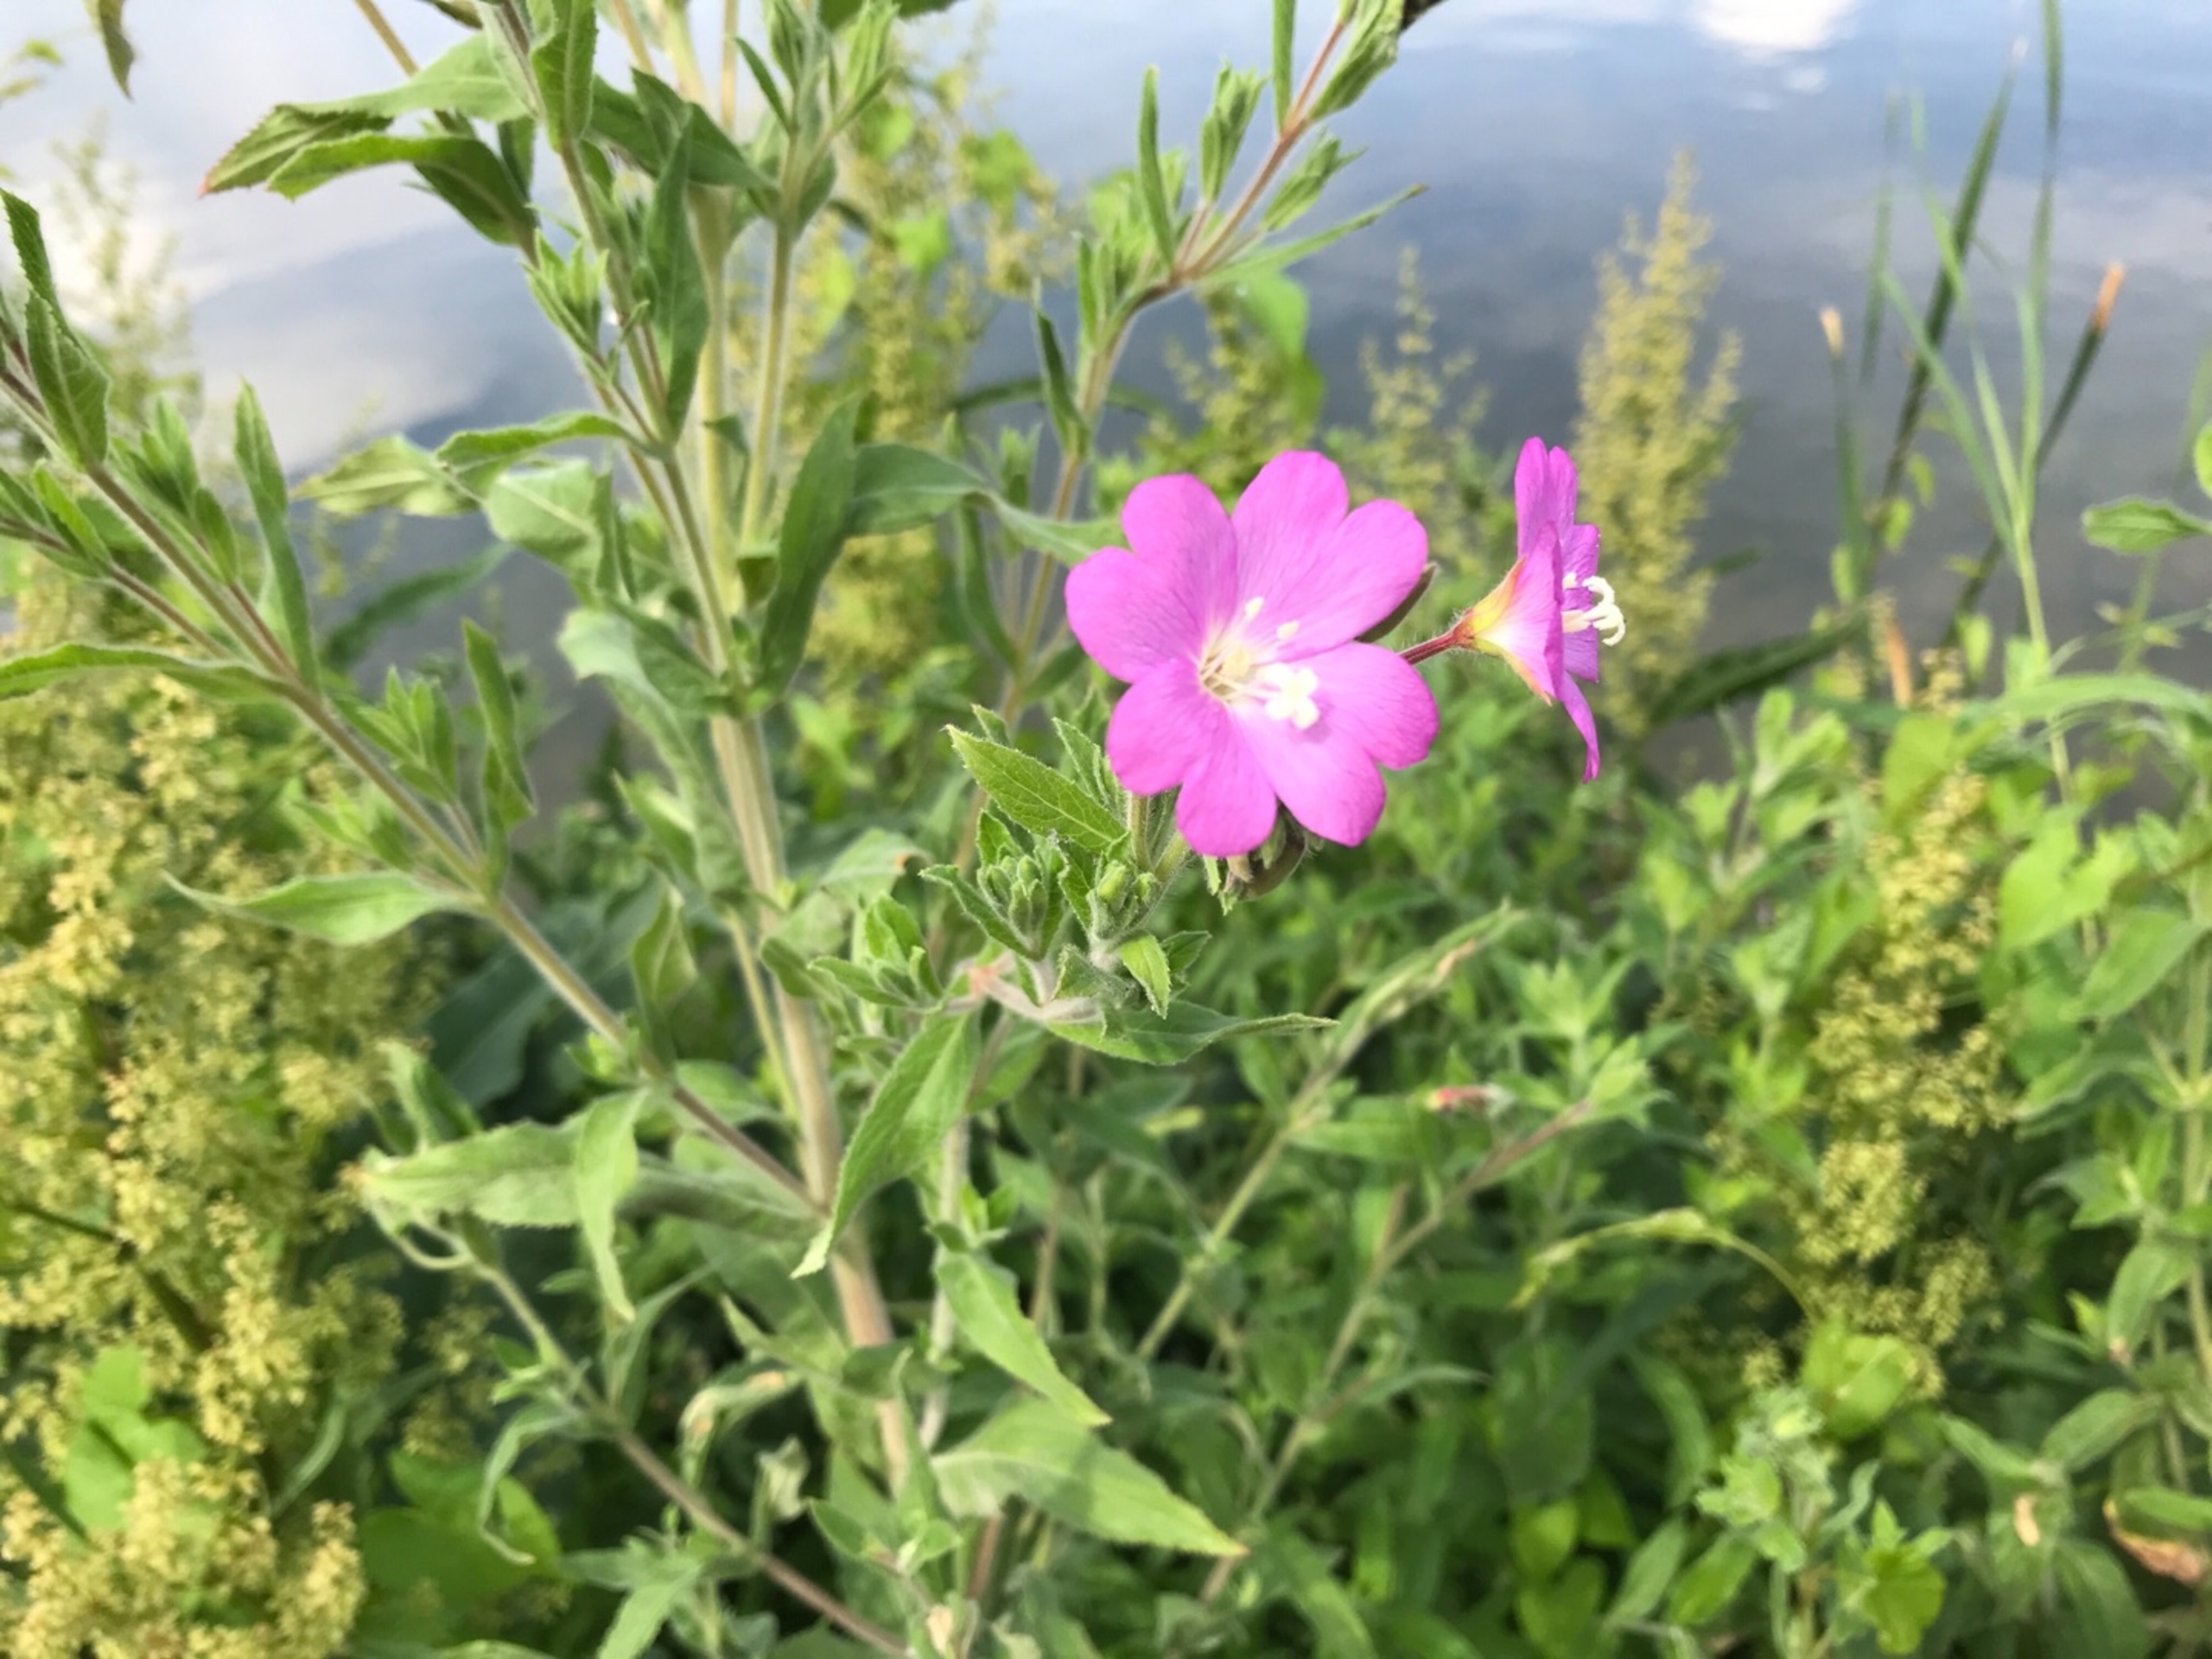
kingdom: Plantae
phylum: Tracheophyta
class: Magnoliopsida
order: Myrtales
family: Onagraceae
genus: Epilobium
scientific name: Epilobium hirsutum
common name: Lådden dueurt
